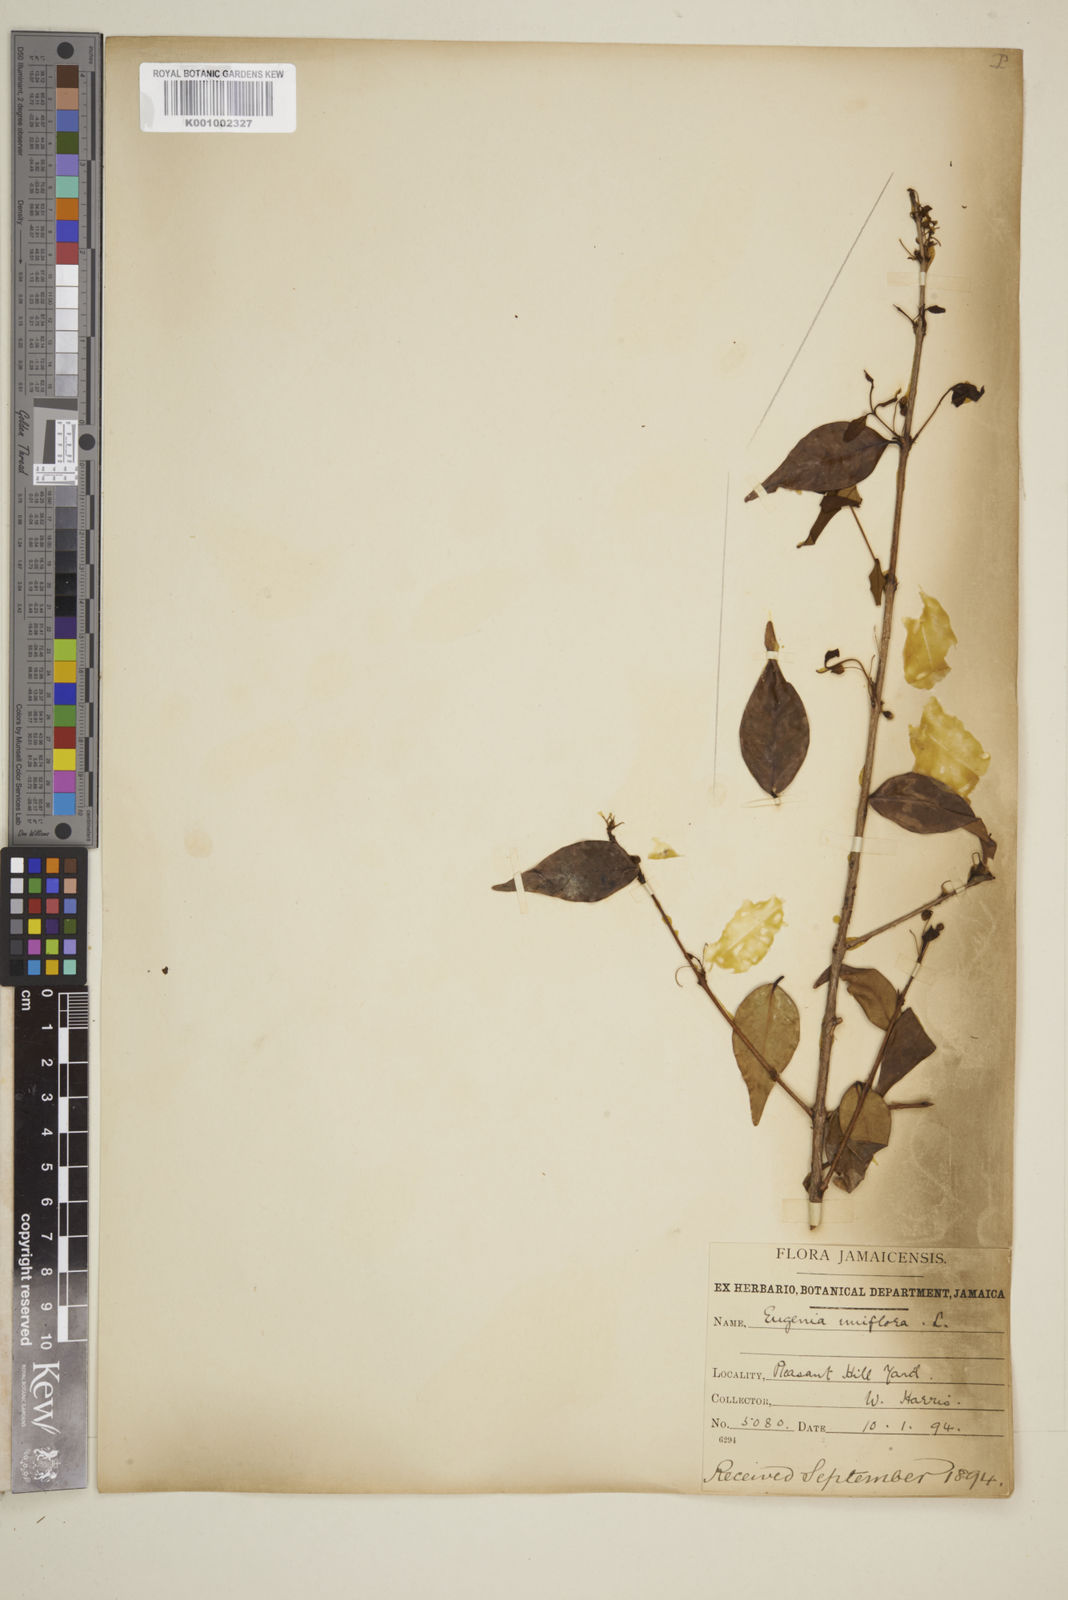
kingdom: Plantae
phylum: Tracheophyta
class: Magnoliopsida
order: Myrtales
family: Myrtaceae
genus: Eugenia
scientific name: Eugenia uniflora
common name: Surinam cherry
